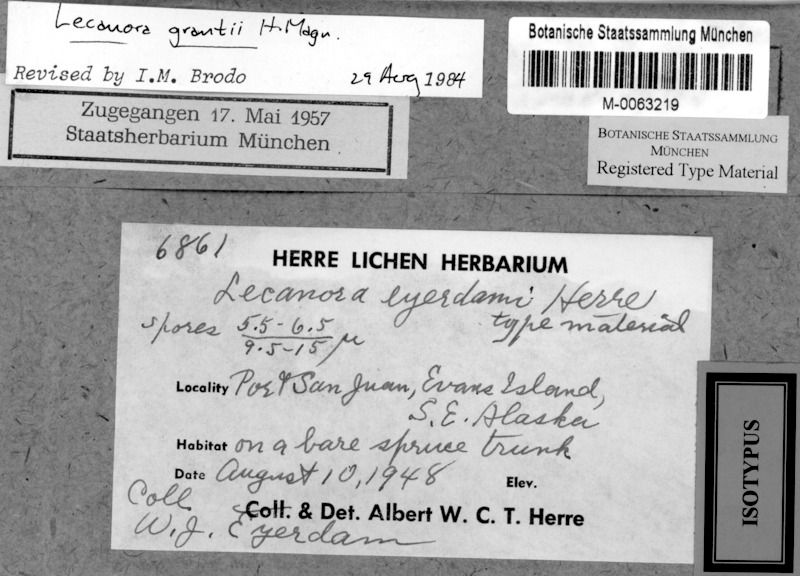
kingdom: Fungi
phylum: Ascomycota
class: Lecanoromycetes
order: Lecanorales
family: Lecanoraceae
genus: Lecanora
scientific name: Lecanora grantii
